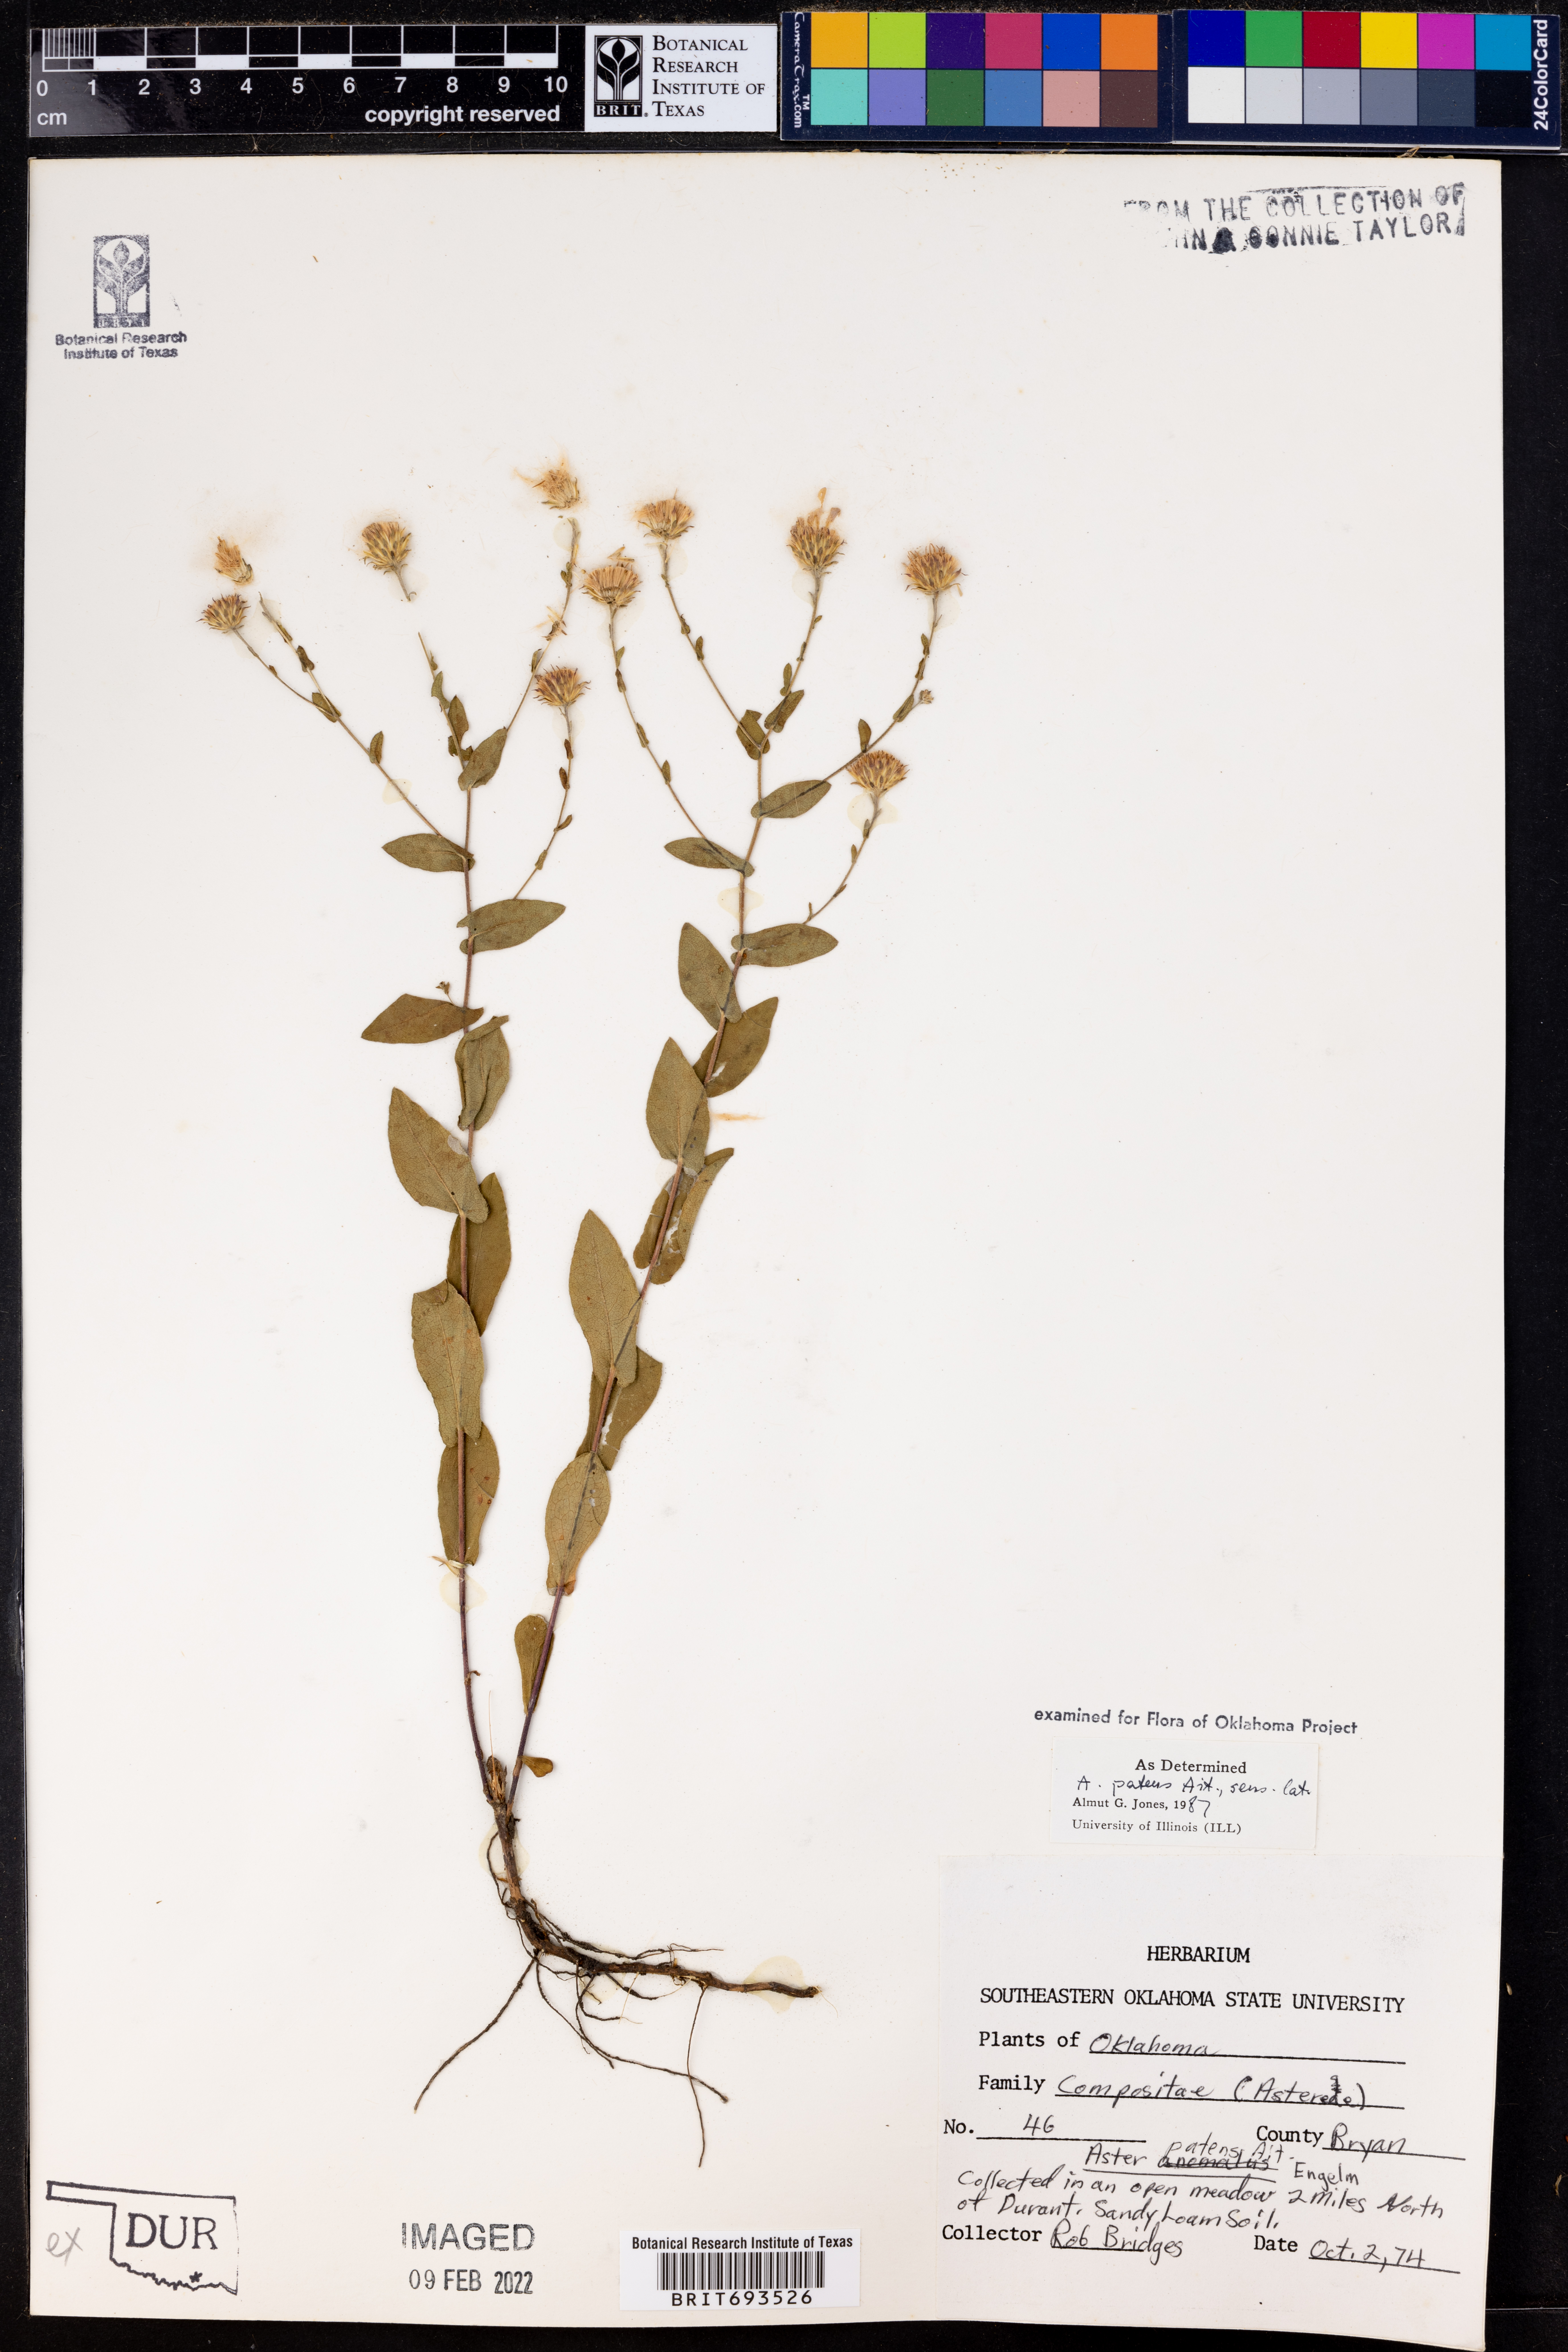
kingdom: Plantae
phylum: Tracheophyta
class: Magnoliopsida
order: Asterales
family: Asteraceae
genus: Symphyotrichum
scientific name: Symphyotrichum patens
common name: Late purple aster
